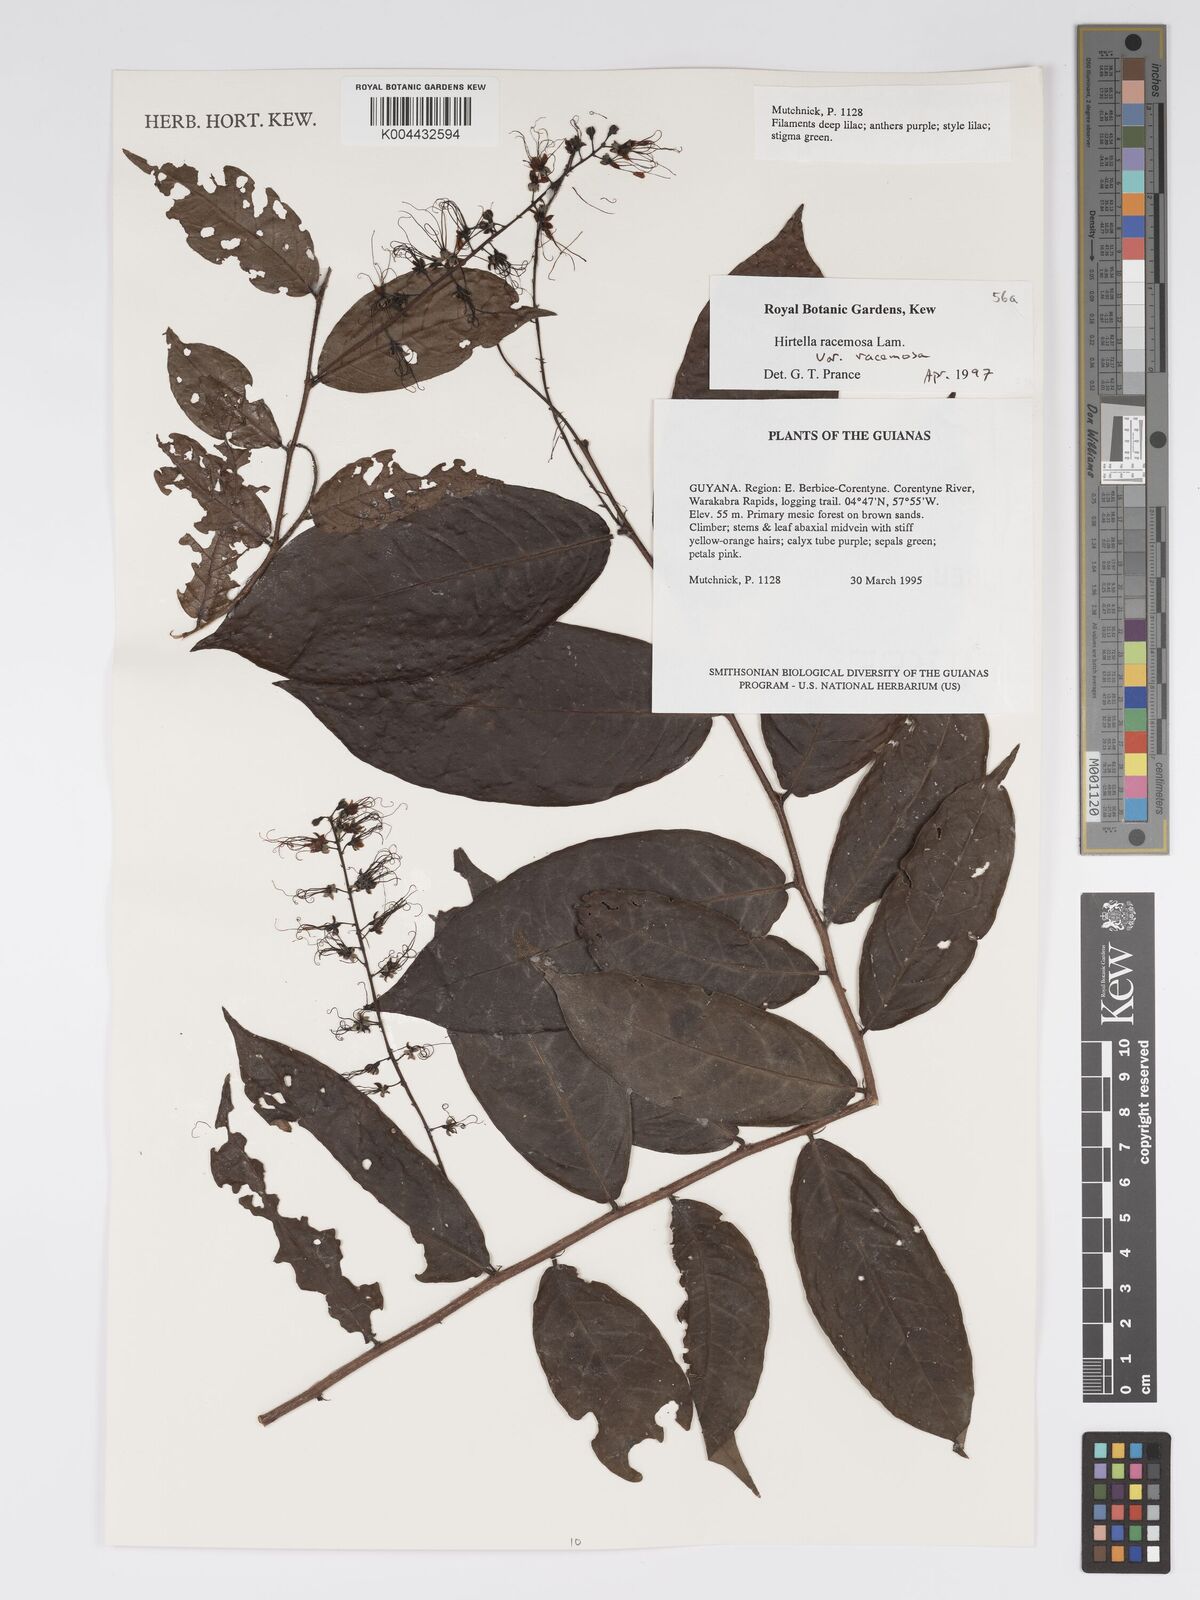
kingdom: Plantae
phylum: Tracheophyta
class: Magnoliopsida
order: Malpighiales
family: Chrysobalanaceae
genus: Hirtella
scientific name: Hirtella racemosa
